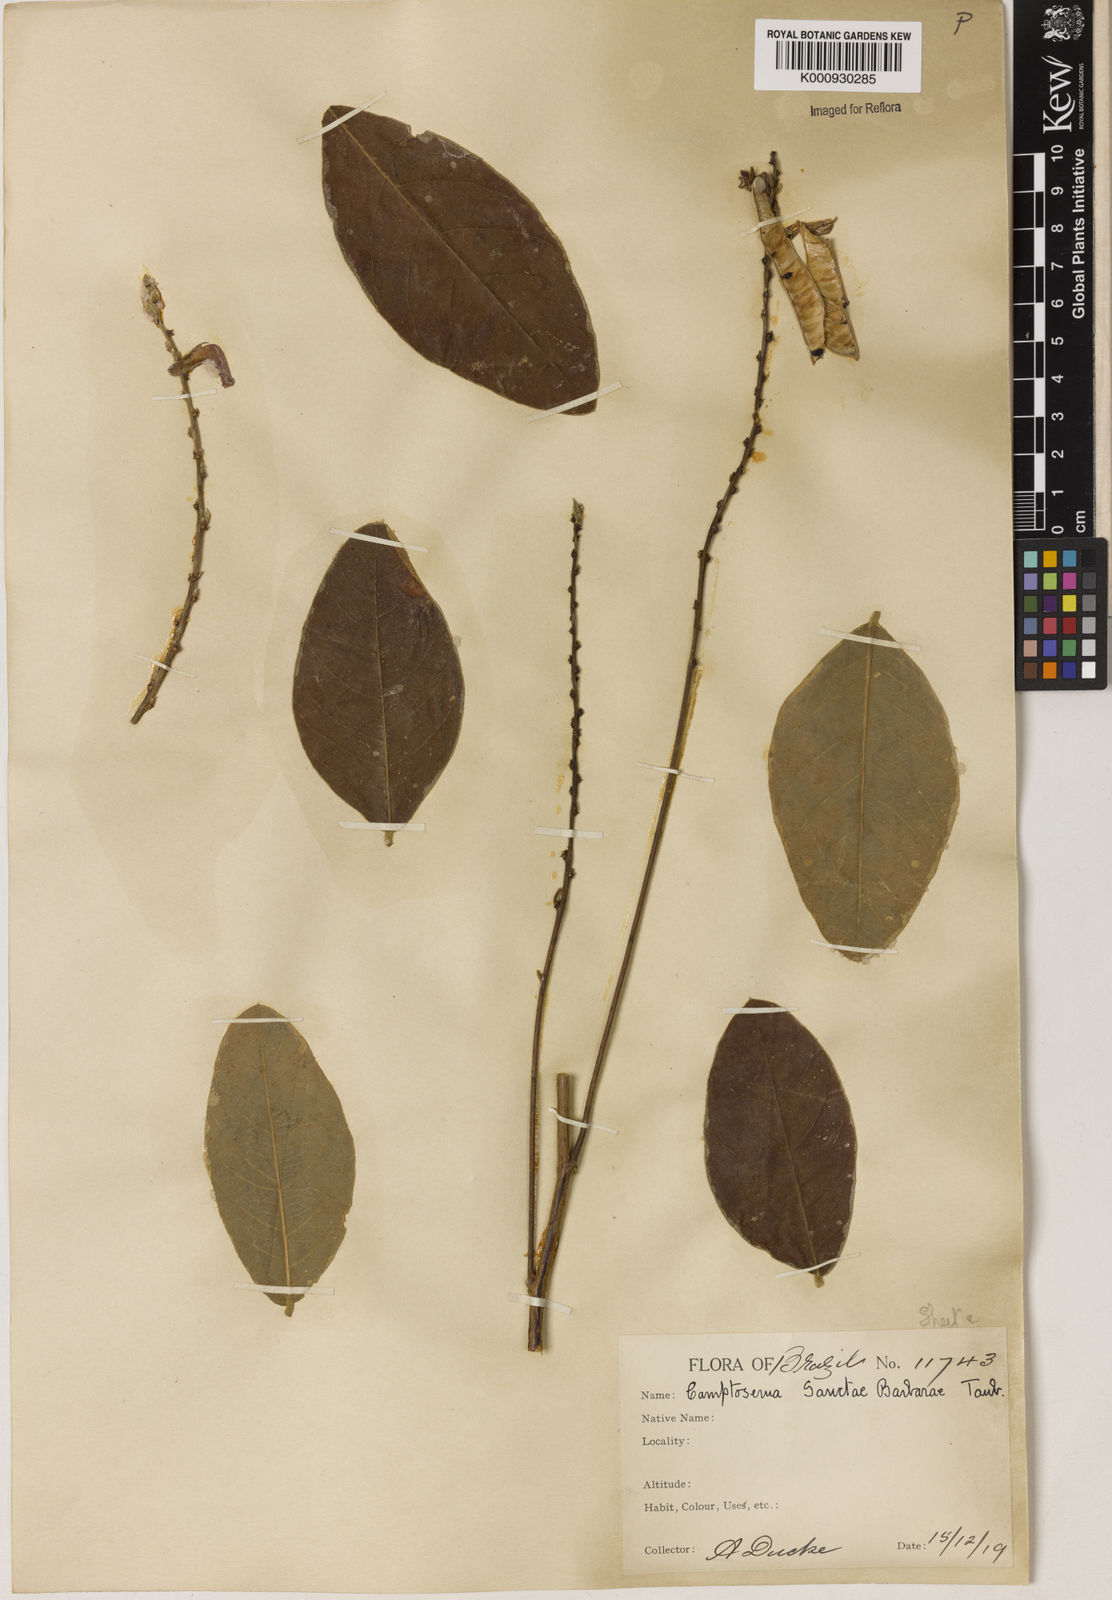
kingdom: Plantae
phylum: Tracheophyta
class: Magnoliopsida
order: Fabales
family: Fabaceae
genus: Camptosema
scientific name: Camptosema sanctae-barbarae
